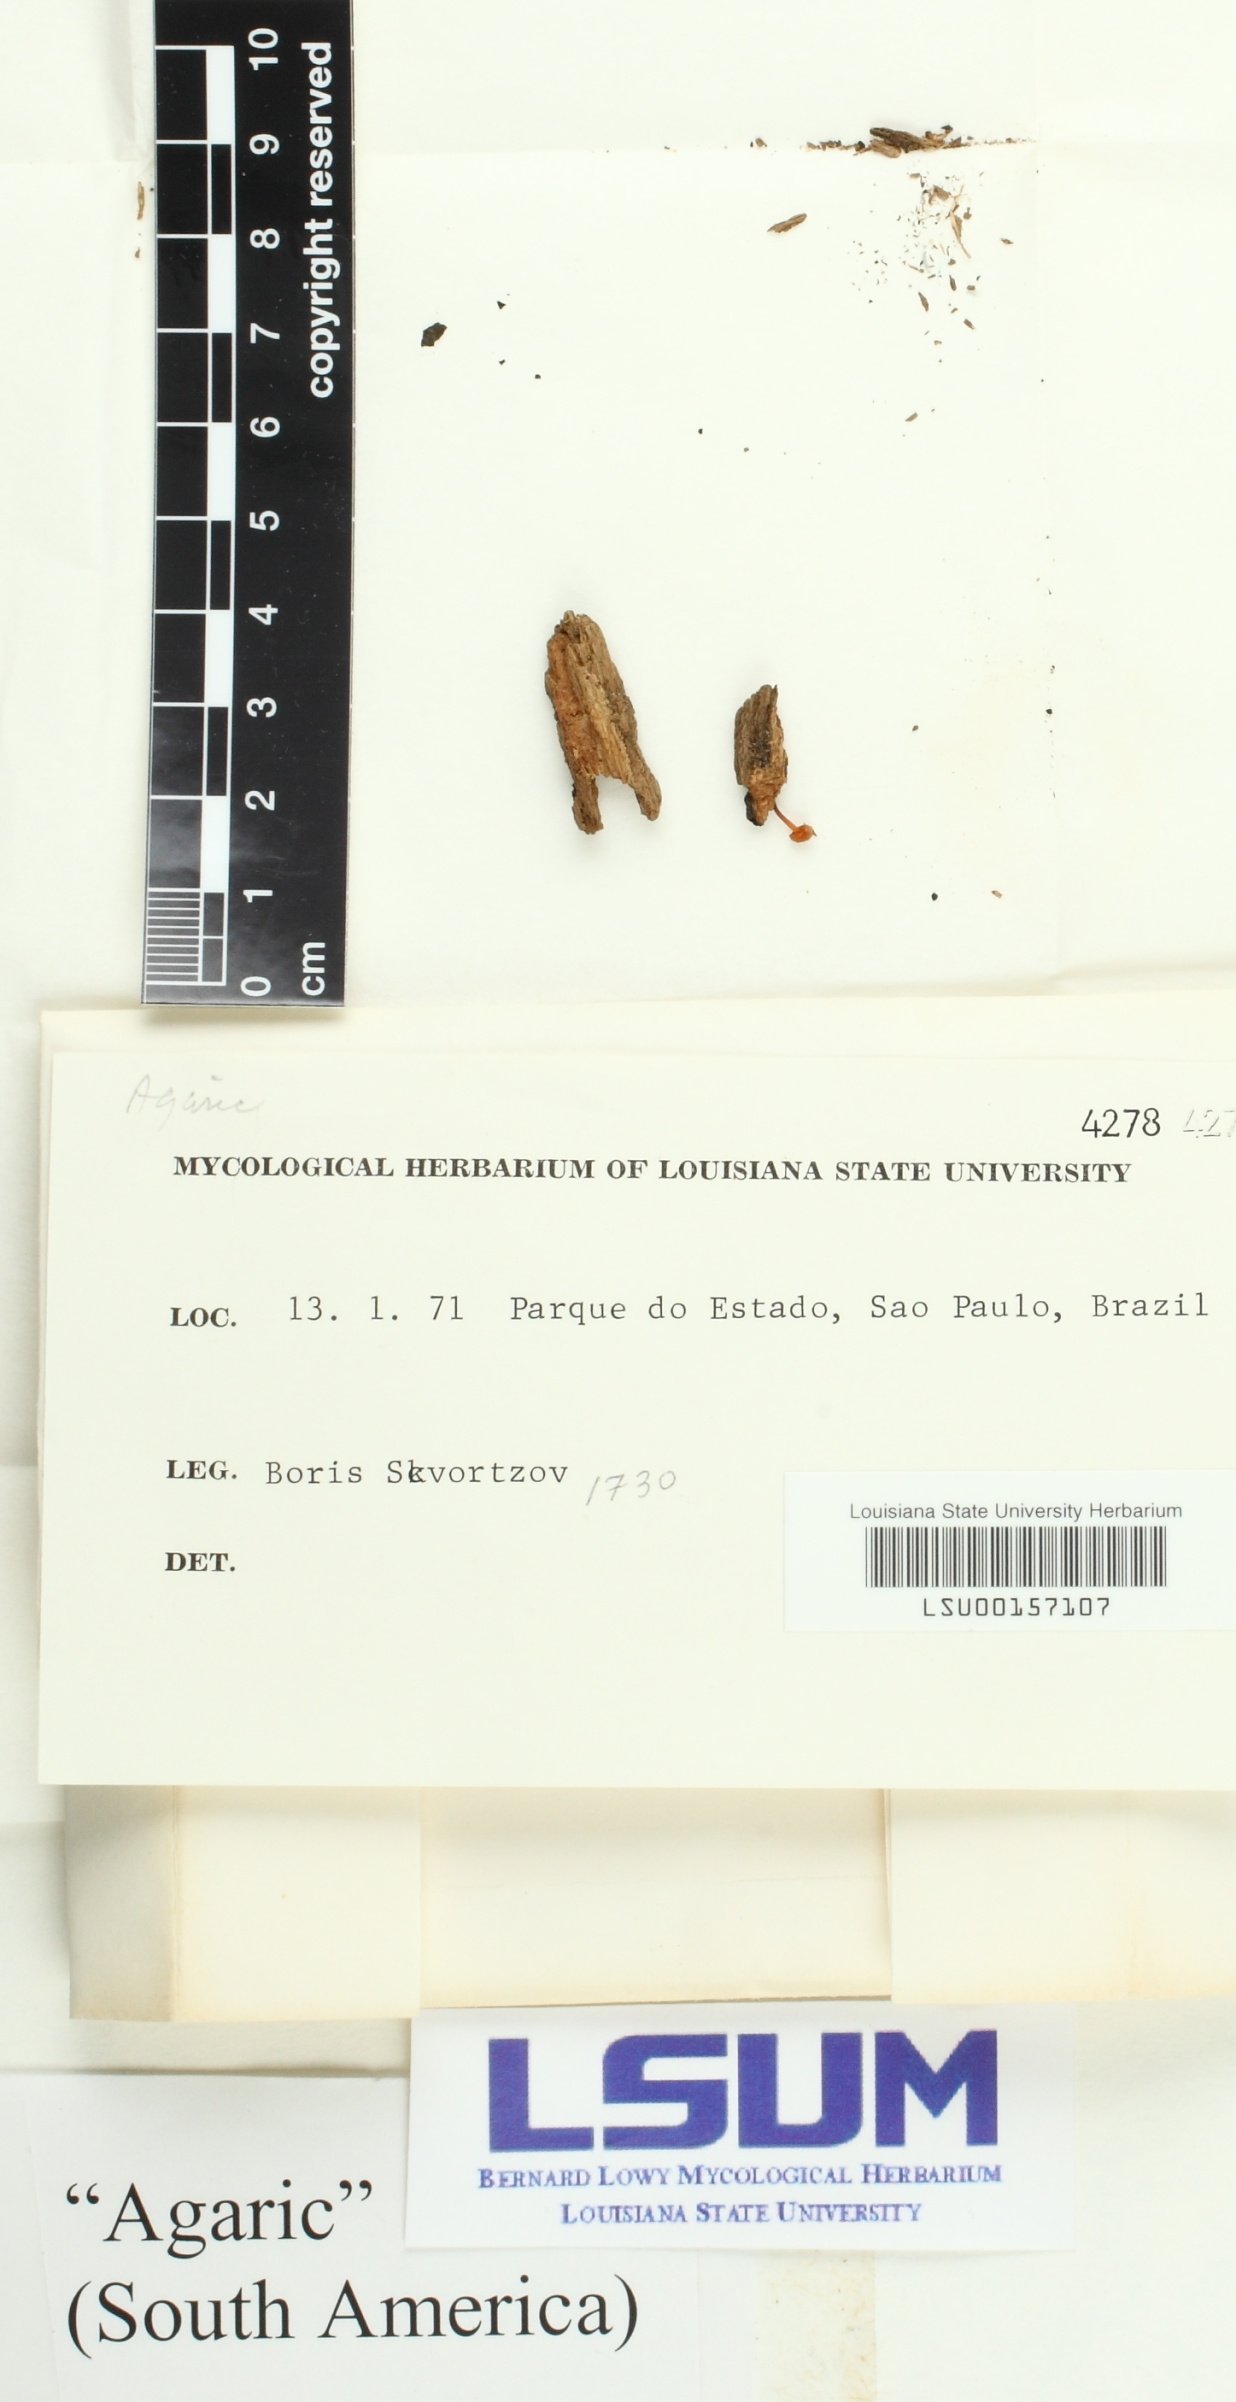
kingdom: Fungi
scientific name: Fungi
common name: Fungi
